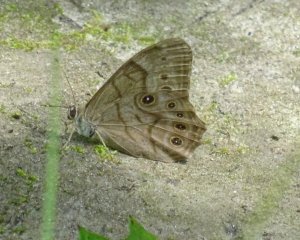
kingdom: Animalia
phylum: Arthropoda
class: Insecta
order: Lepidoptera
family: Nymphalidae
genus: Lethe
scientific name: Lethe anthedon
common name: Northern Pearly-Eye
